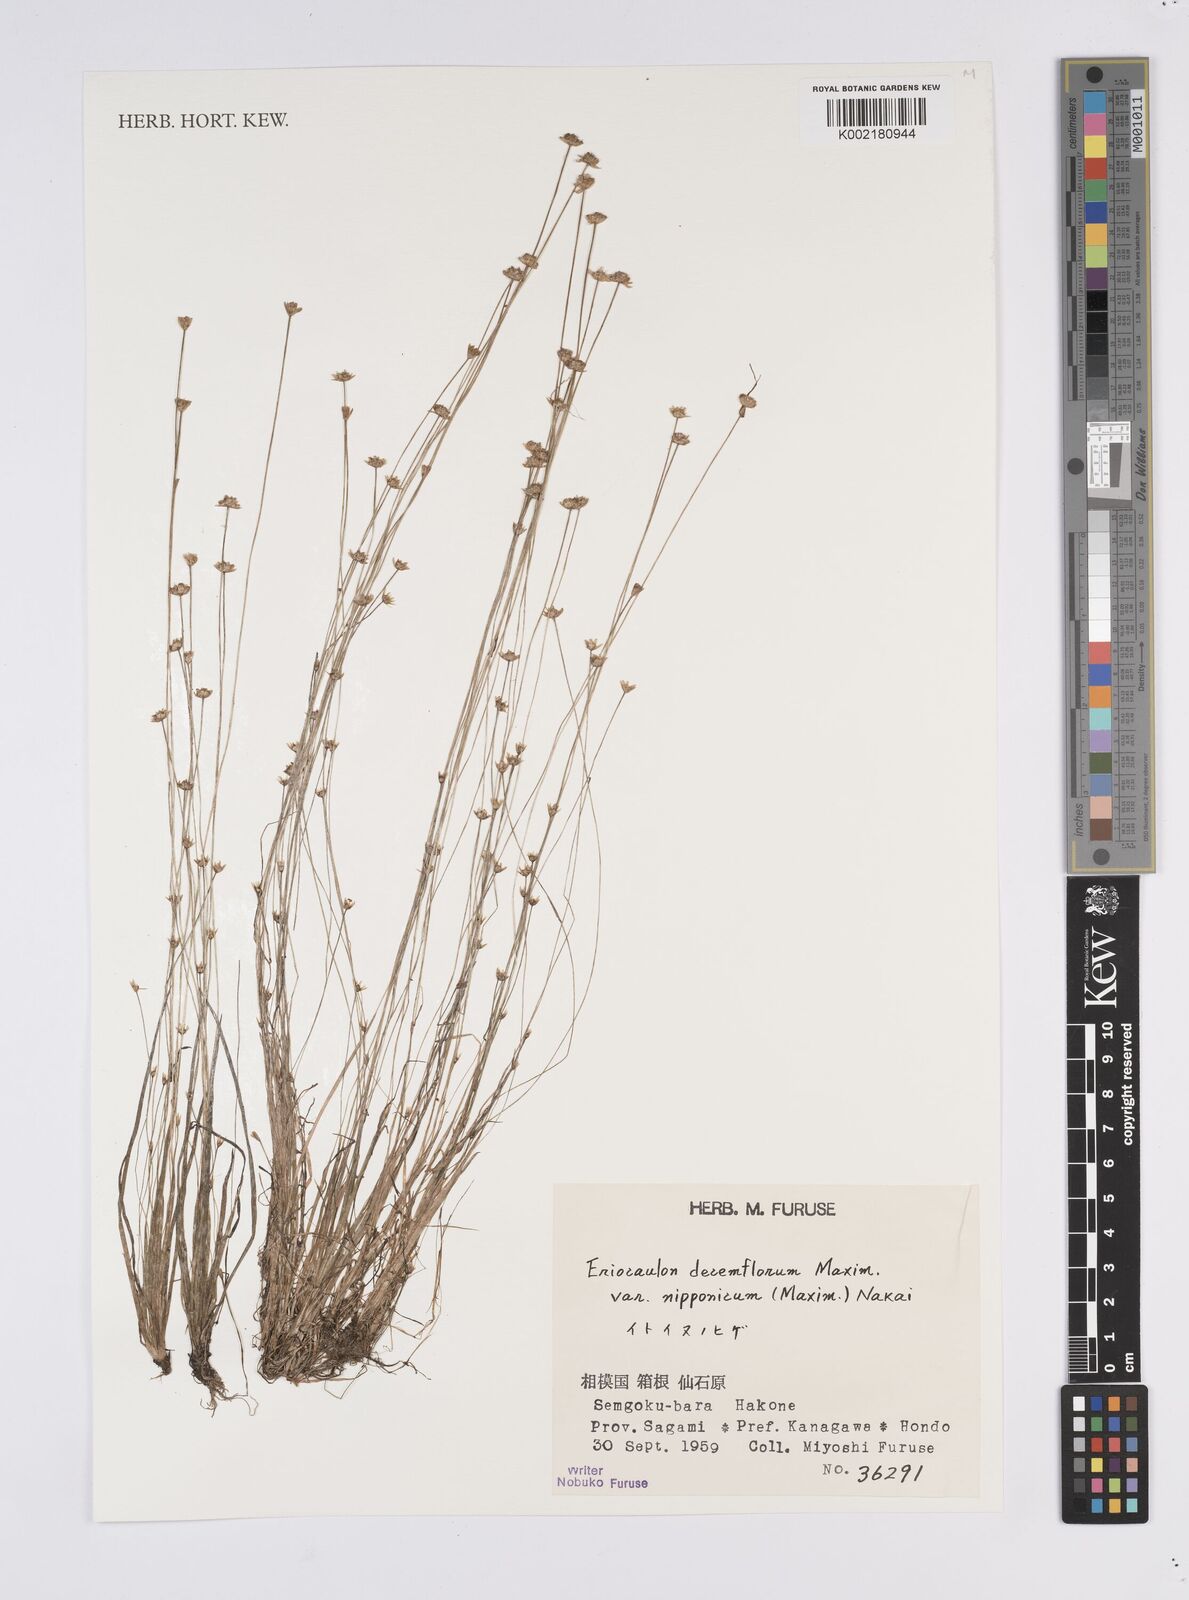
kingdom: Plantae
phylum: Tracheophyta
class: Liliopsida
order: Poales
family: Eriocaulaceae
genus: Eriocaulon
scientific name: Eriocaulon decemflorum
